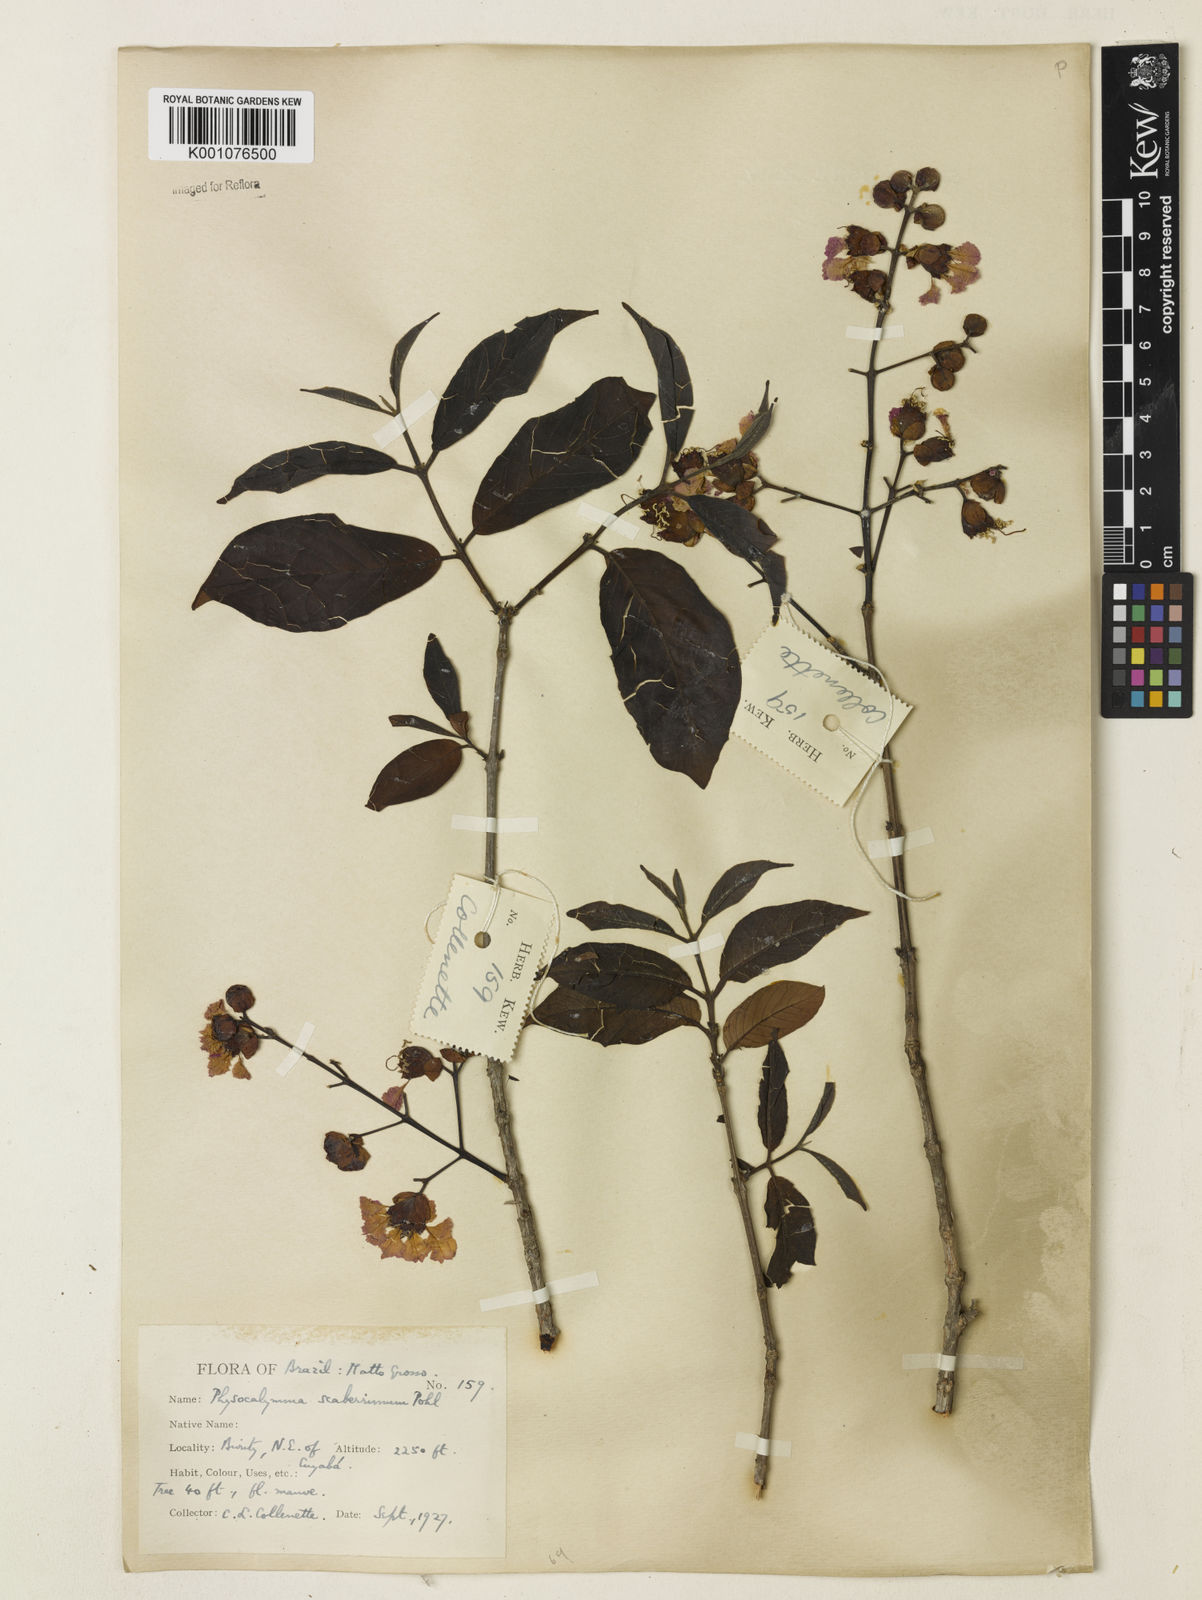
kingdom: Plantae
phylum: Tracheophyta
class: Magnoliopsida
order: Myrtales
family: Lythraceae
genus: Physocalymma
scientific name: Physocalymma scaberrimum
